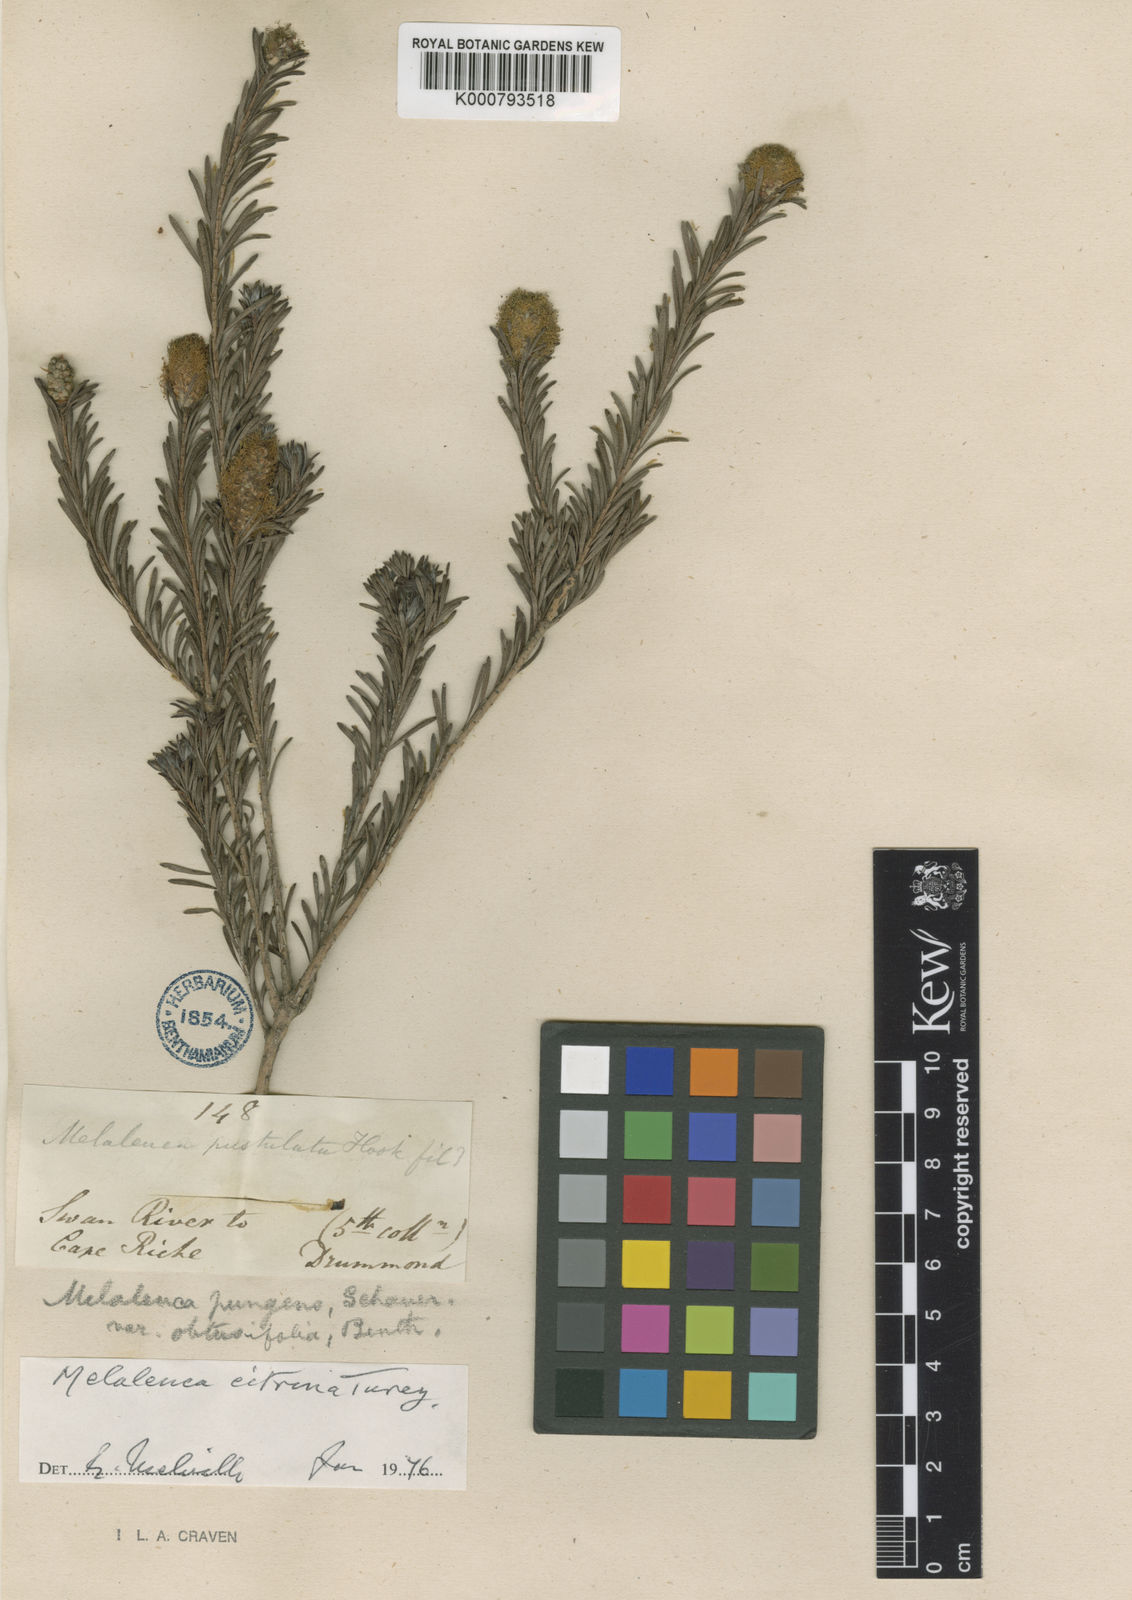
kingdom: Plantae
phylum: Tracheophyta
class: Magnoliopsida
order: Myrtales
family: Myrtaceae
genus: Melaleuca
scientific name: Melaleuca lutea
